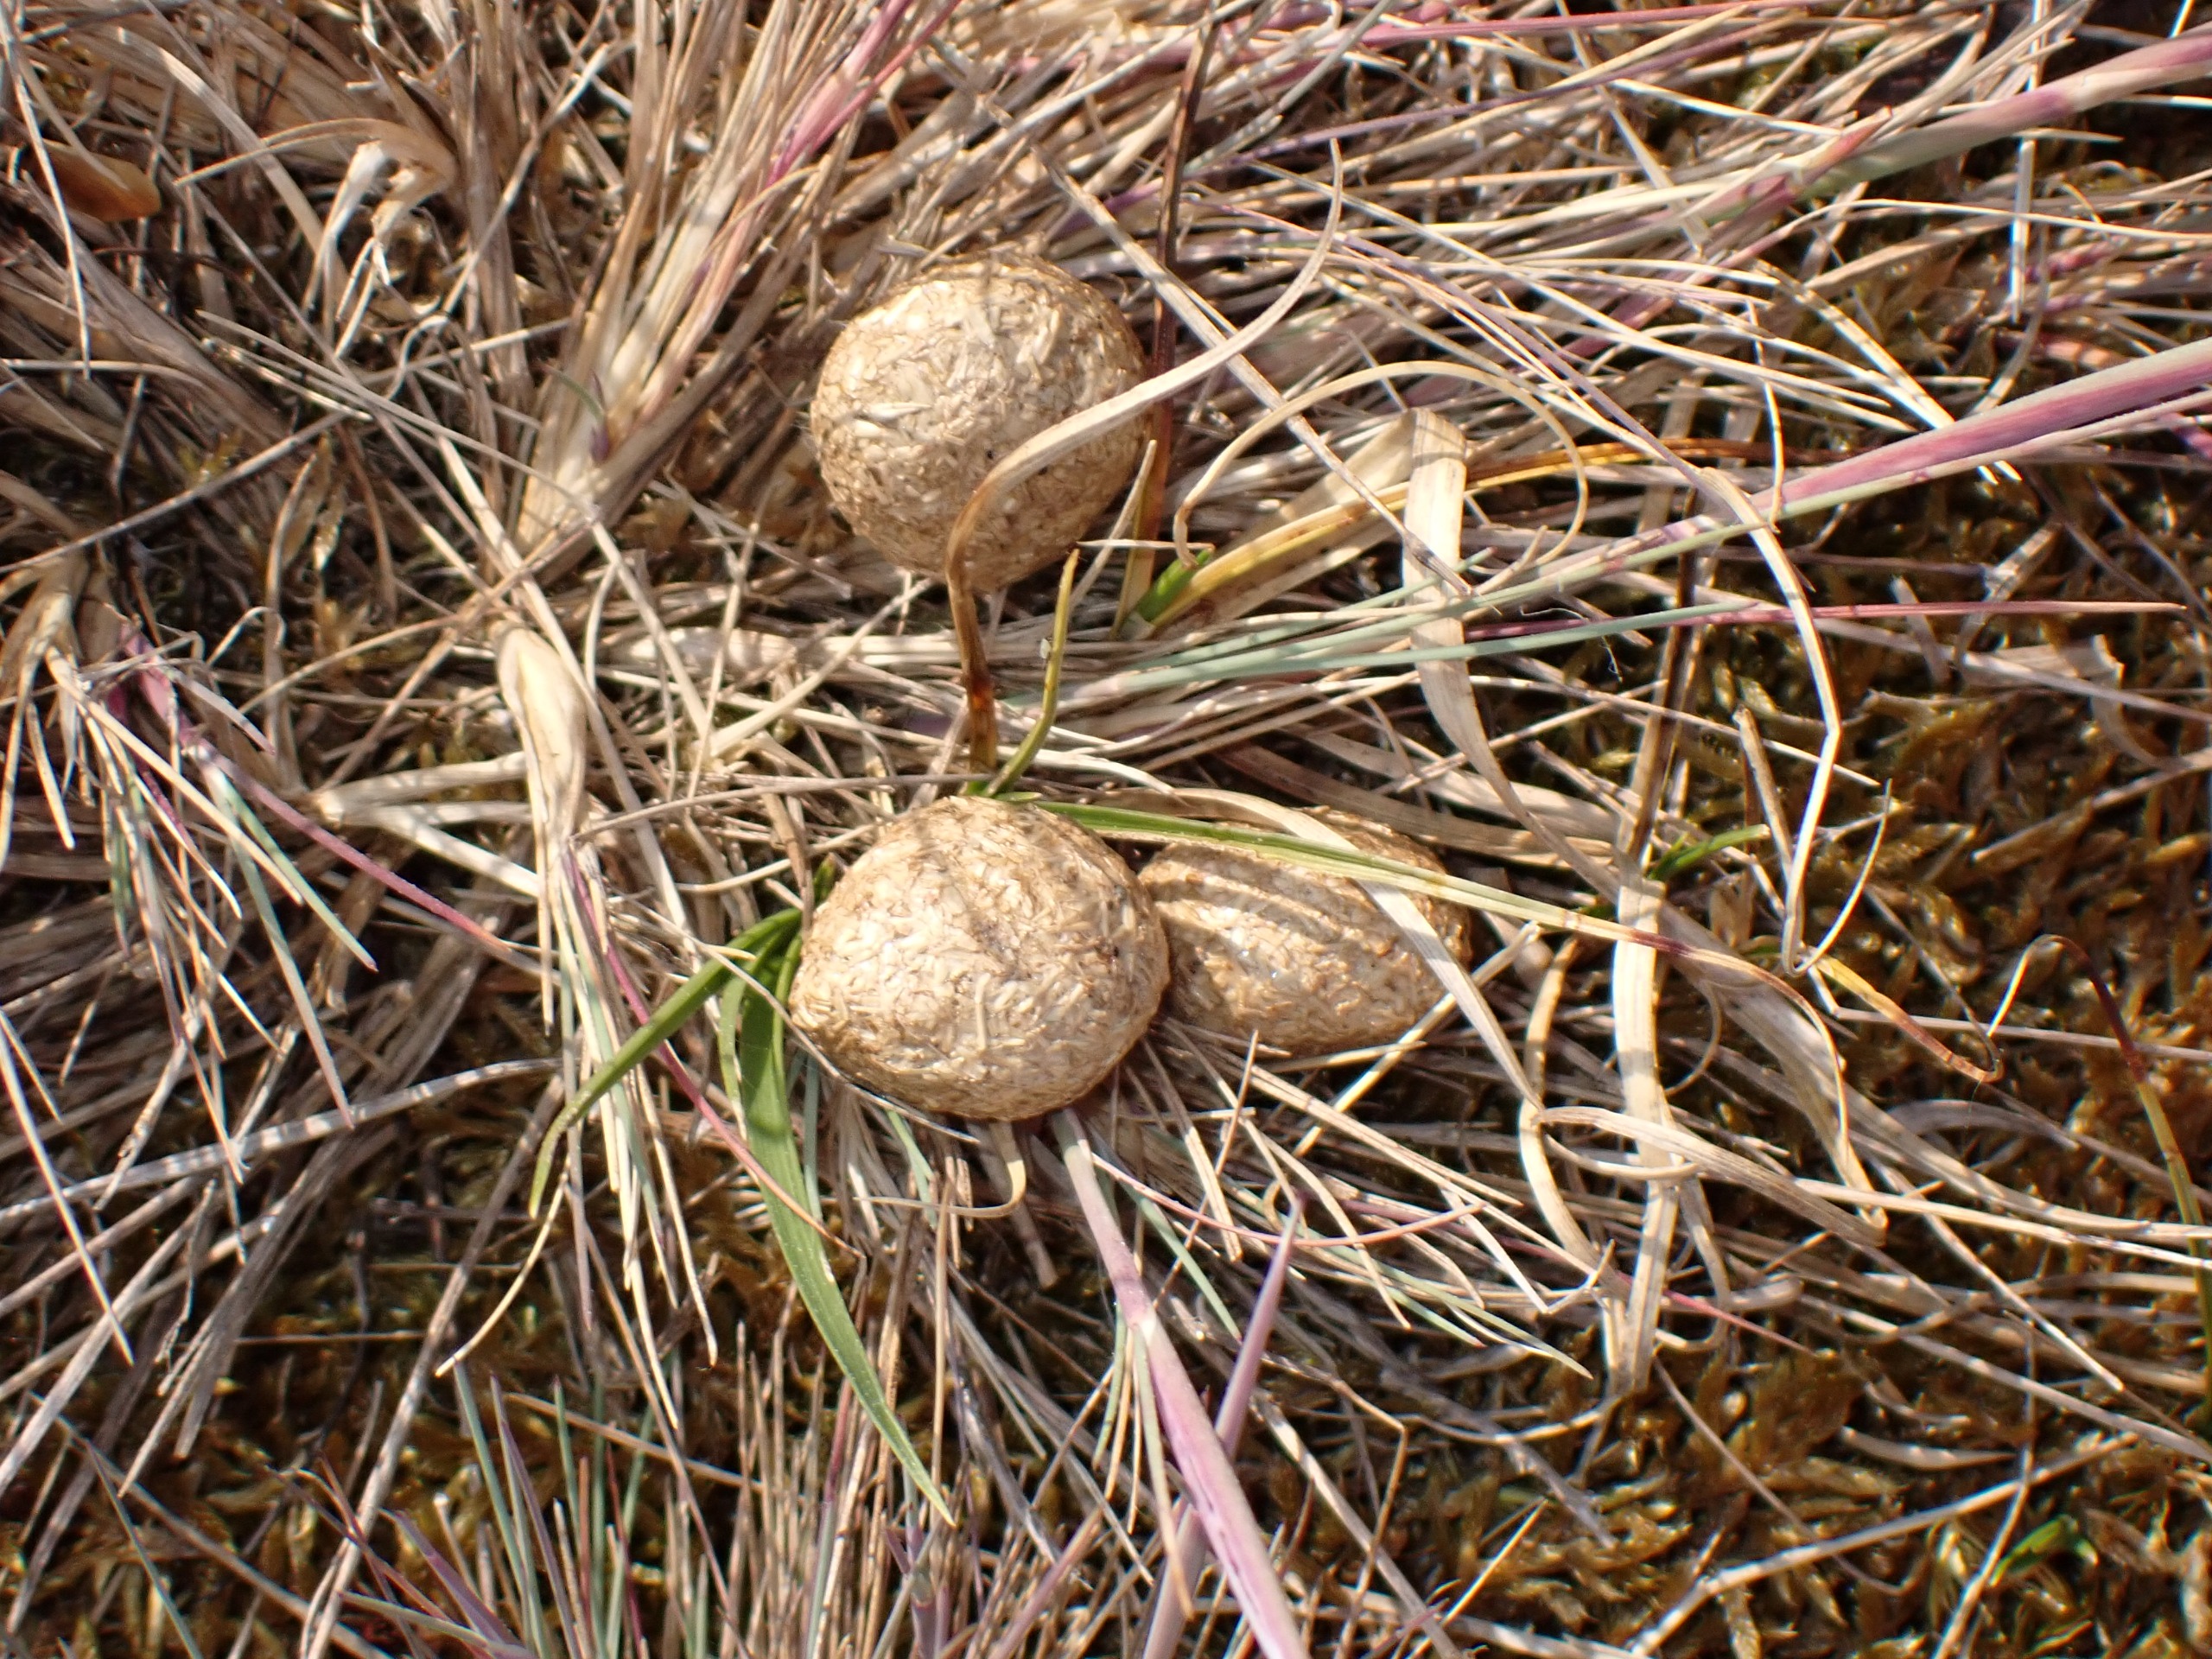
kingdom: Animalia
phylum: Chordata
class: Mammalia
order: Lagomorpha
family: Leporidae
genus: Lepus
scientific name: Lepus europaeus
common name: Hare
